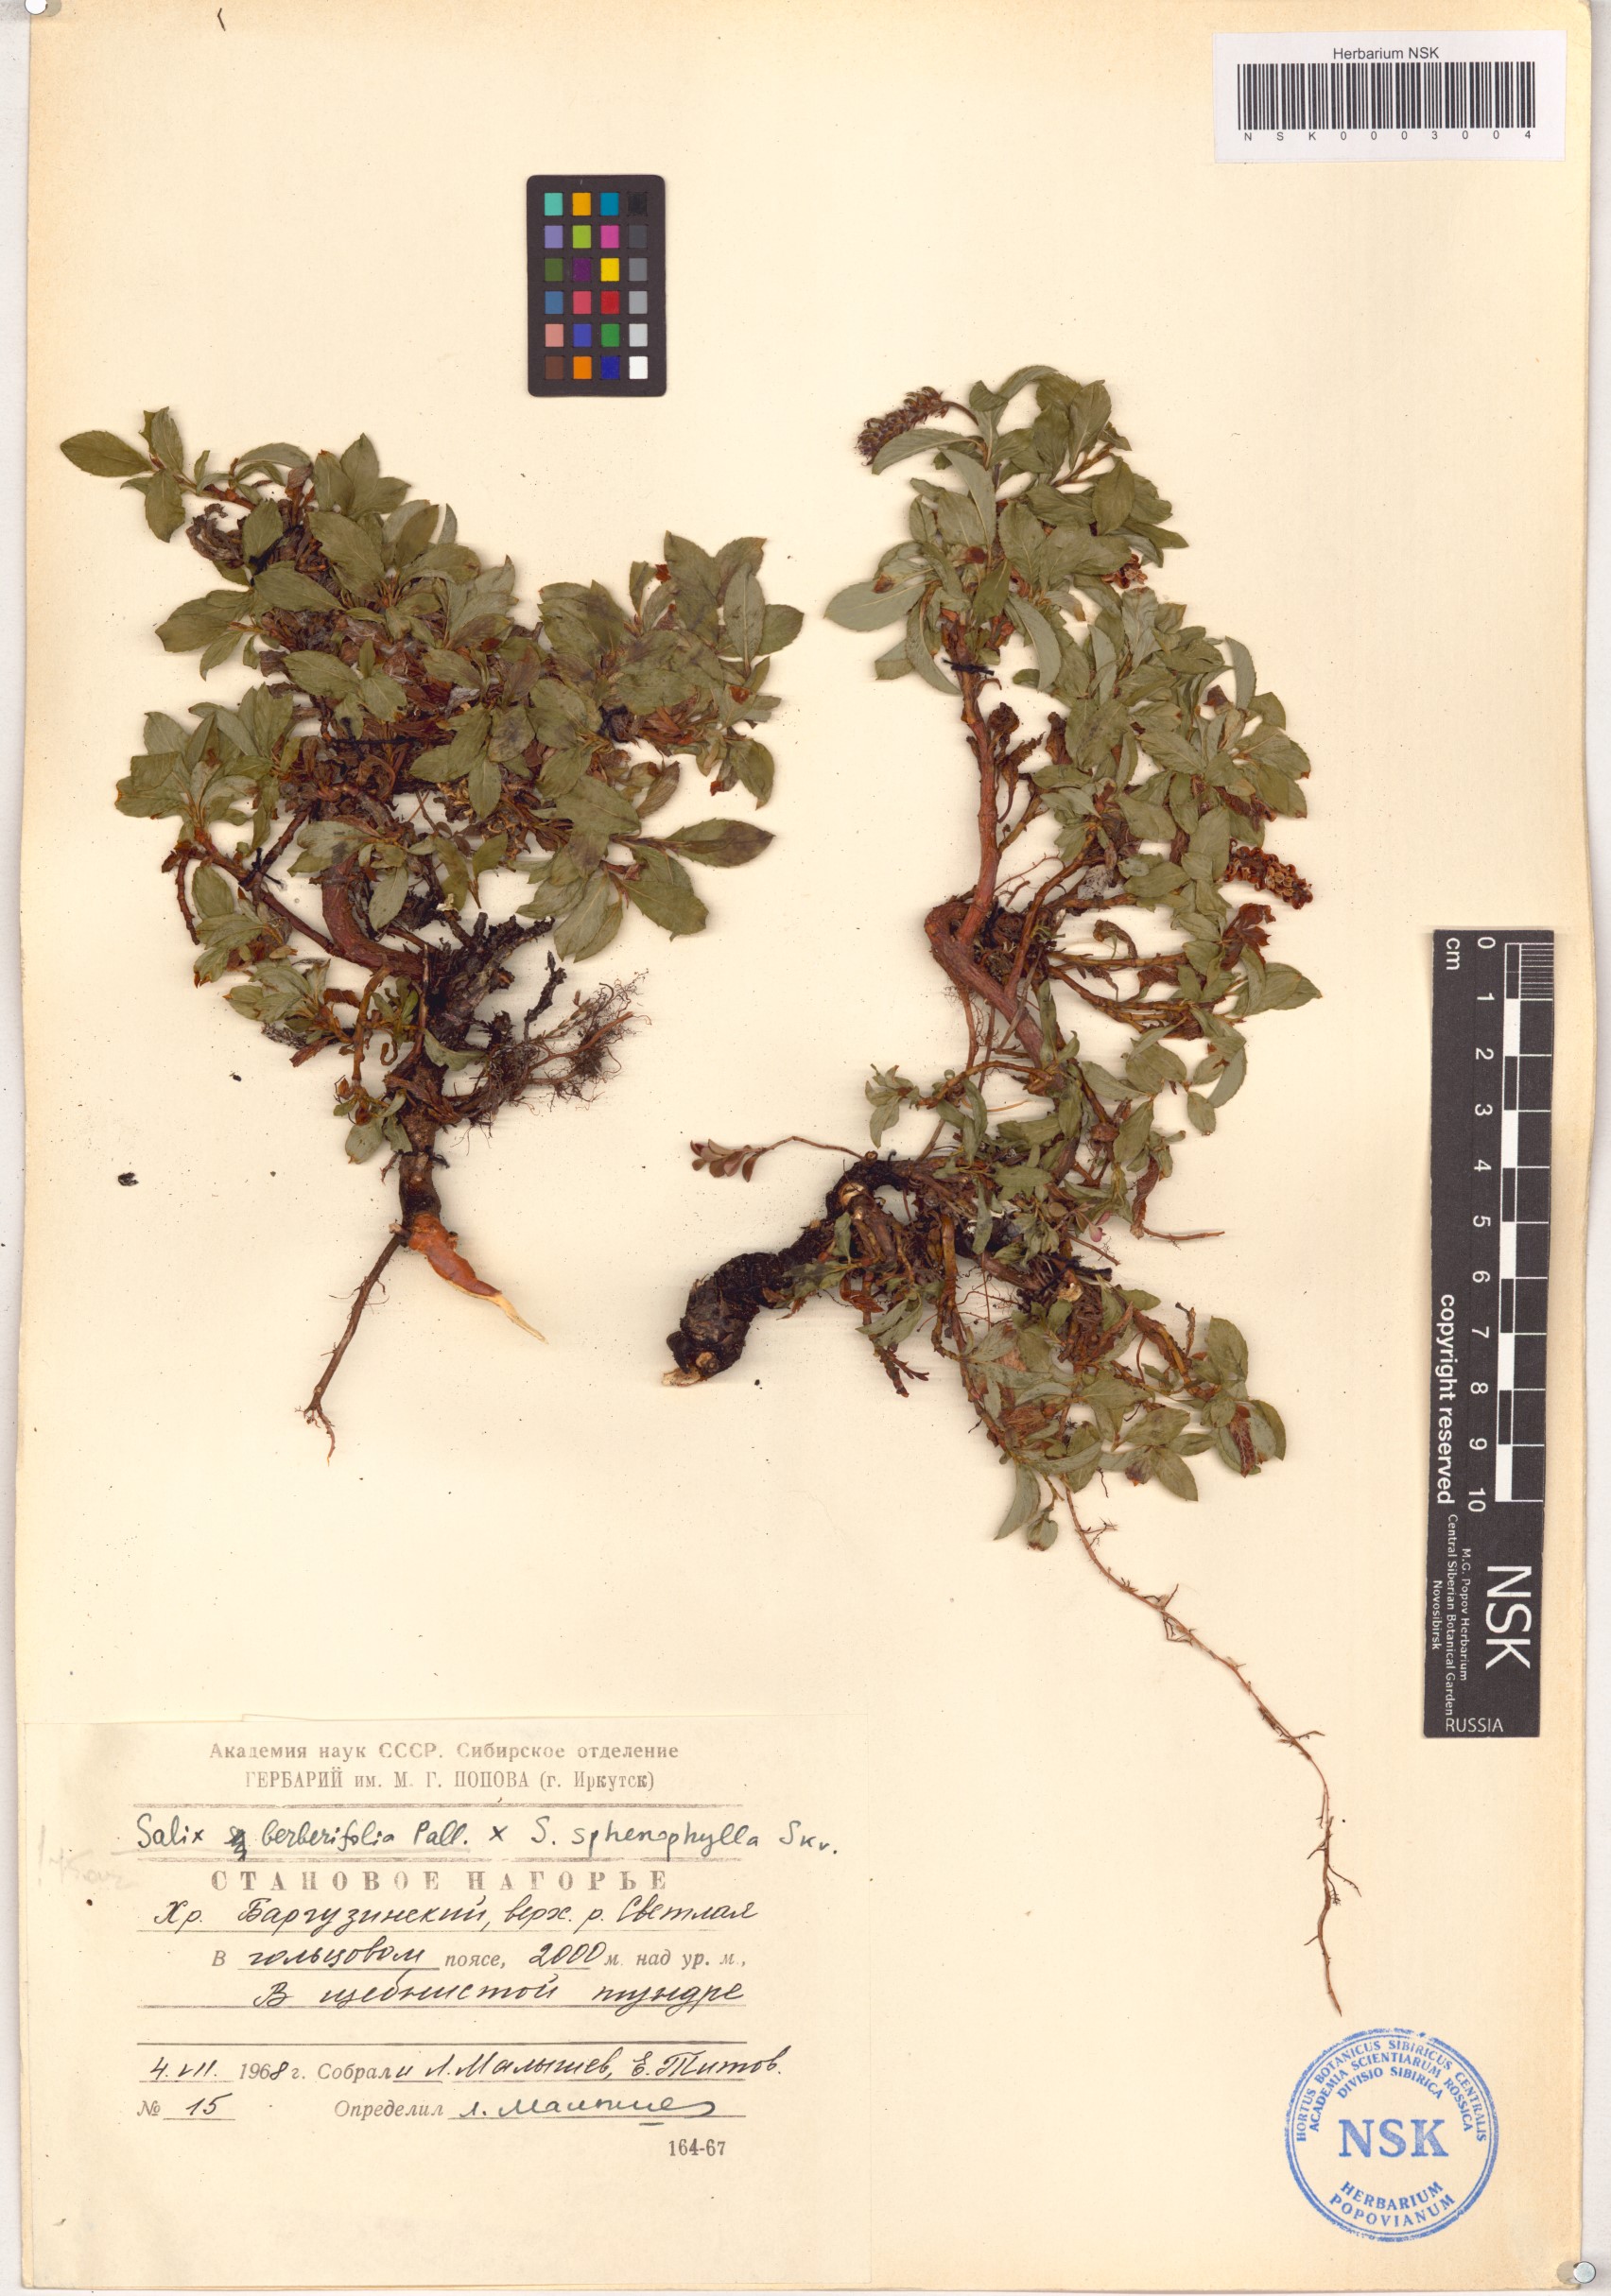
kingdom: Plantae
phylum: Tracheophyta
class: Magnoliopsida
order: Malpighiales
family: Salicaceae
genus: Salix
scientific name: Salix berberifolia
